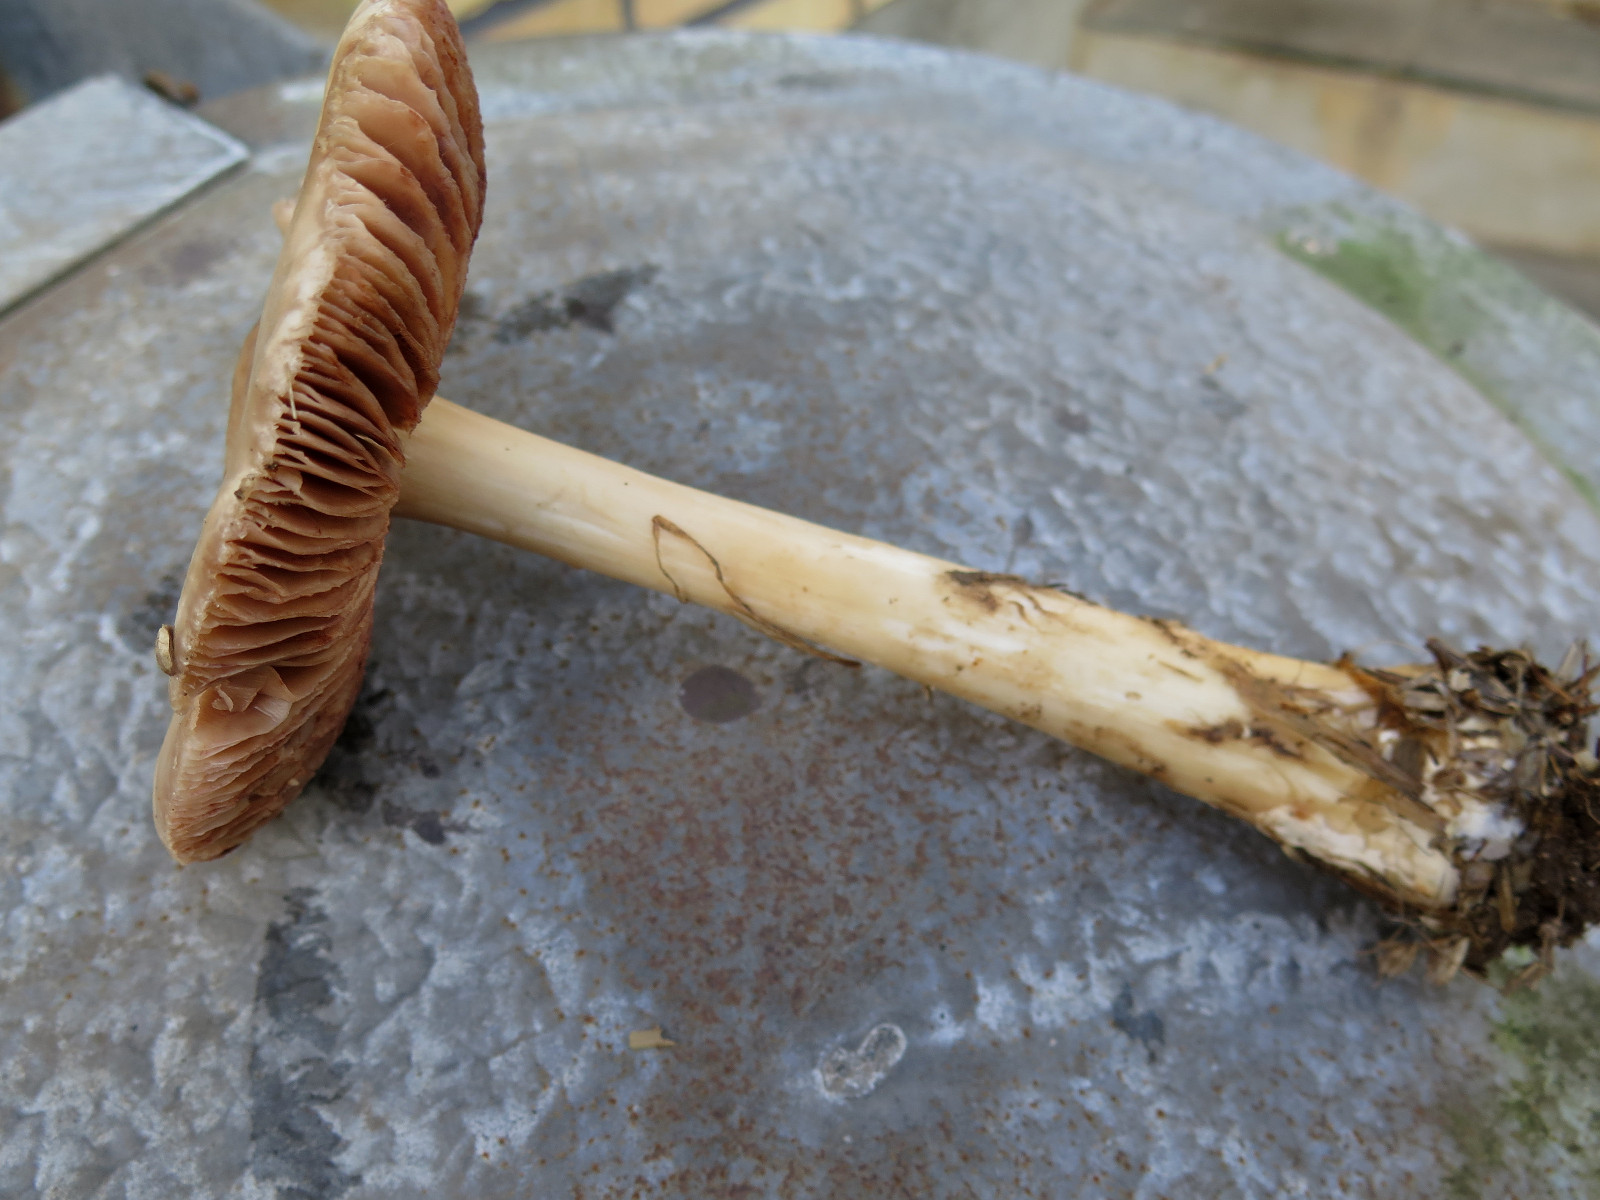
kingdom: Fungi
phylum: Basidiomycota
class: Agaricomycetes
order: Agaricales
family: Pluteaceae
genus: Volvopluteus
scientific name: Volvopluteus gloiocephalus
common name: høj posesvamp
